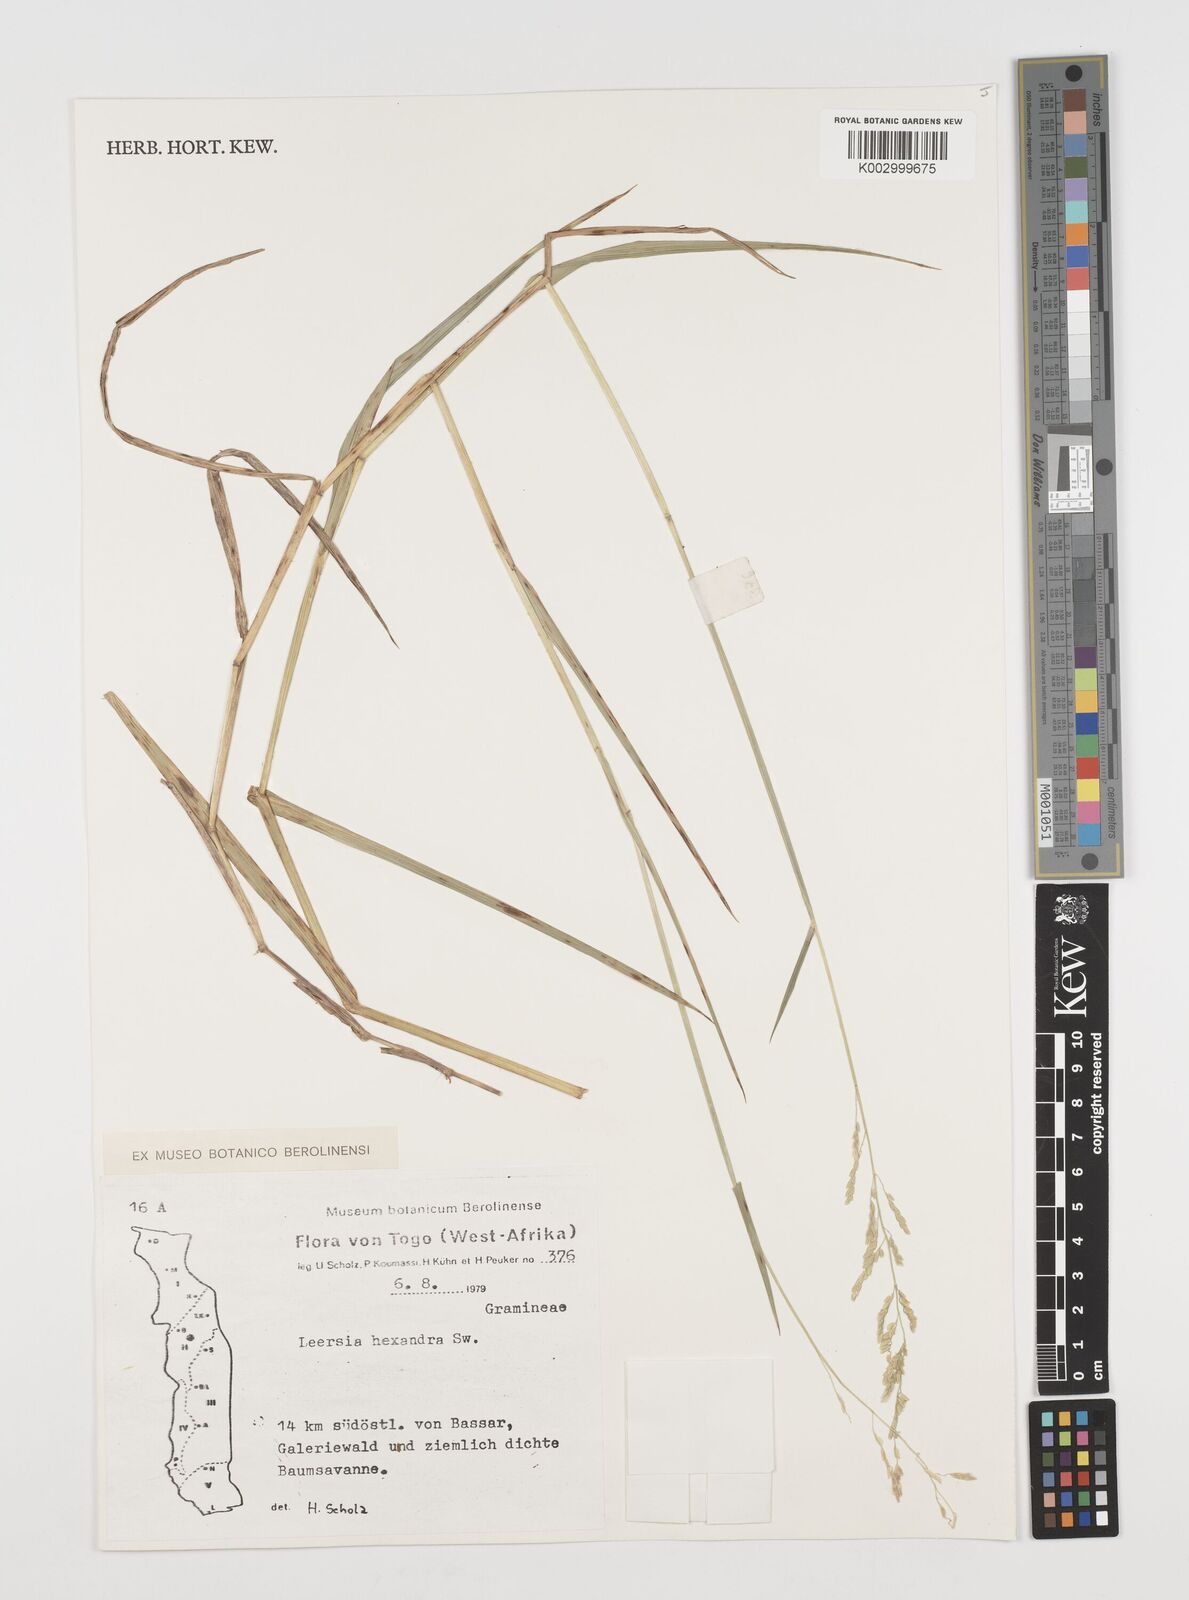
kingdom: Plantae
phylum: Tracheophyta
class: Liliopsida
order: Poales
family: Poaceae
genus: Leersia
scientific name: Leersia hexandra
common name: Southern cut grass
